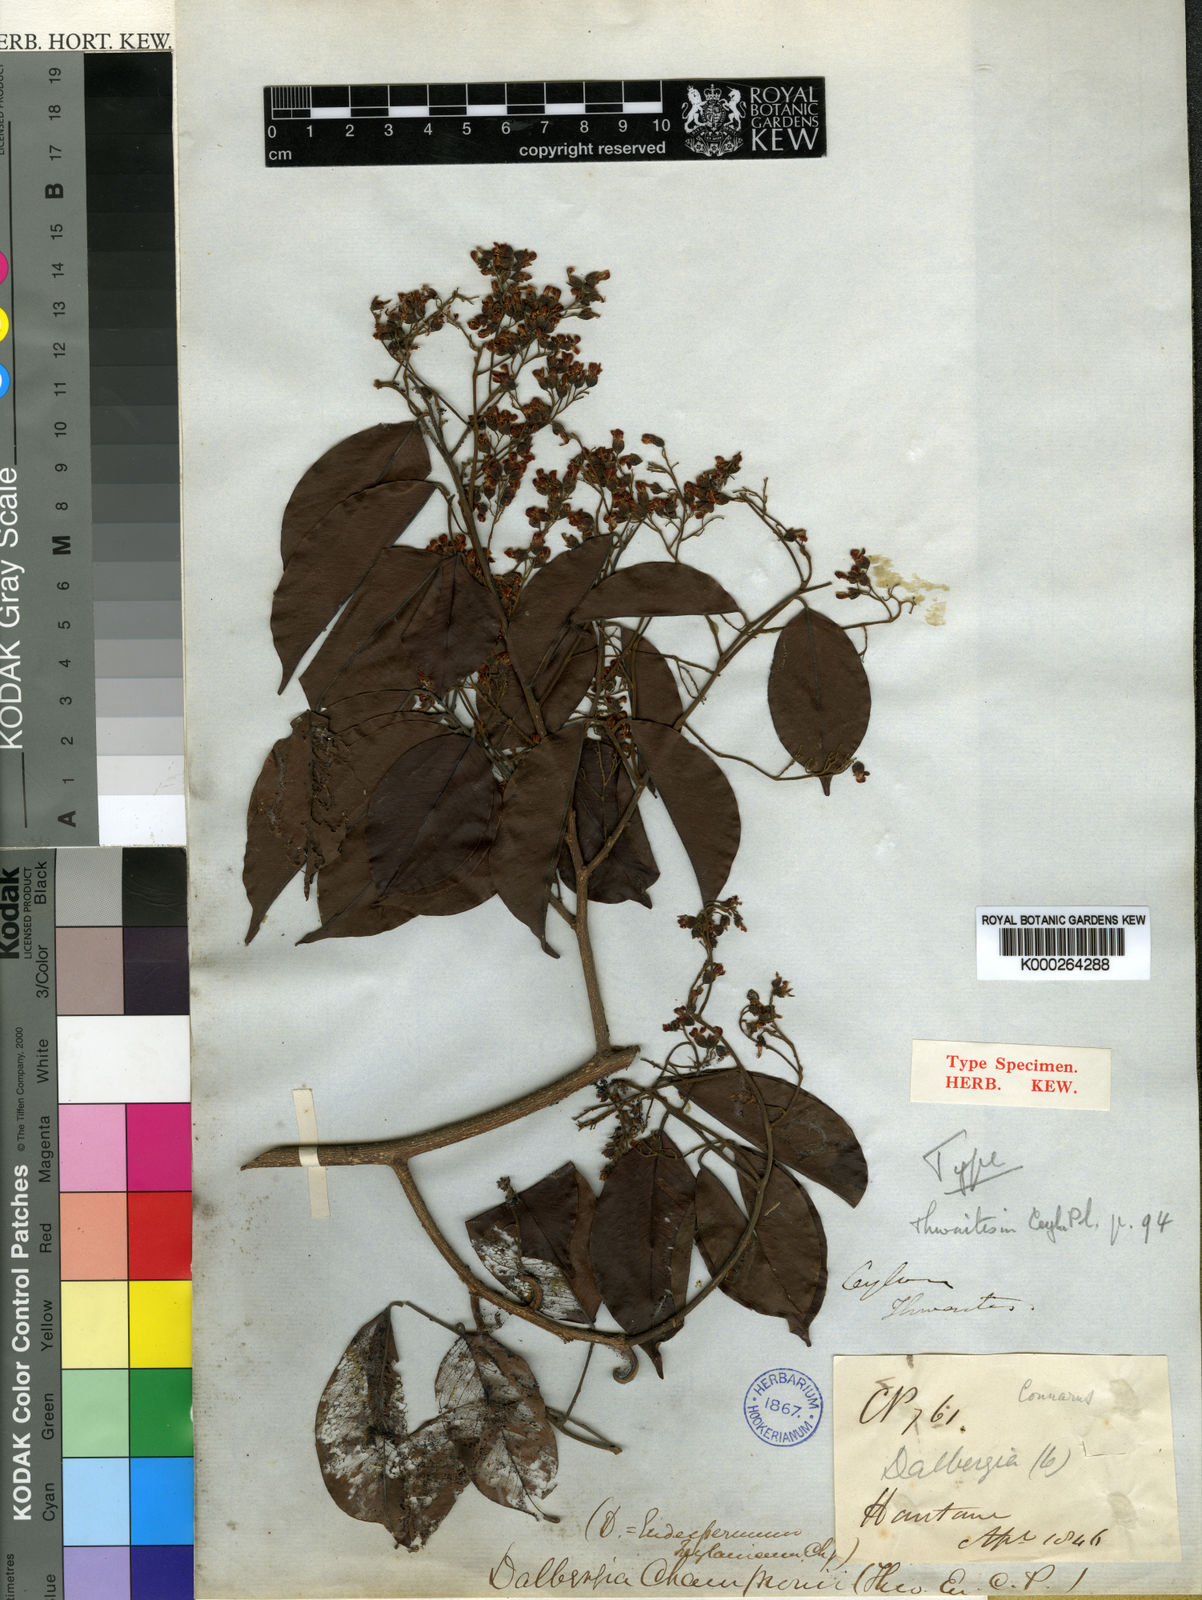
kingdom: Plantae
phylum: Tracheophyta
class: Magnoliopsida
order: Fabales
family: Fabaceae
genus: Dalbergia
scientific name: Dalbergia rostrata
